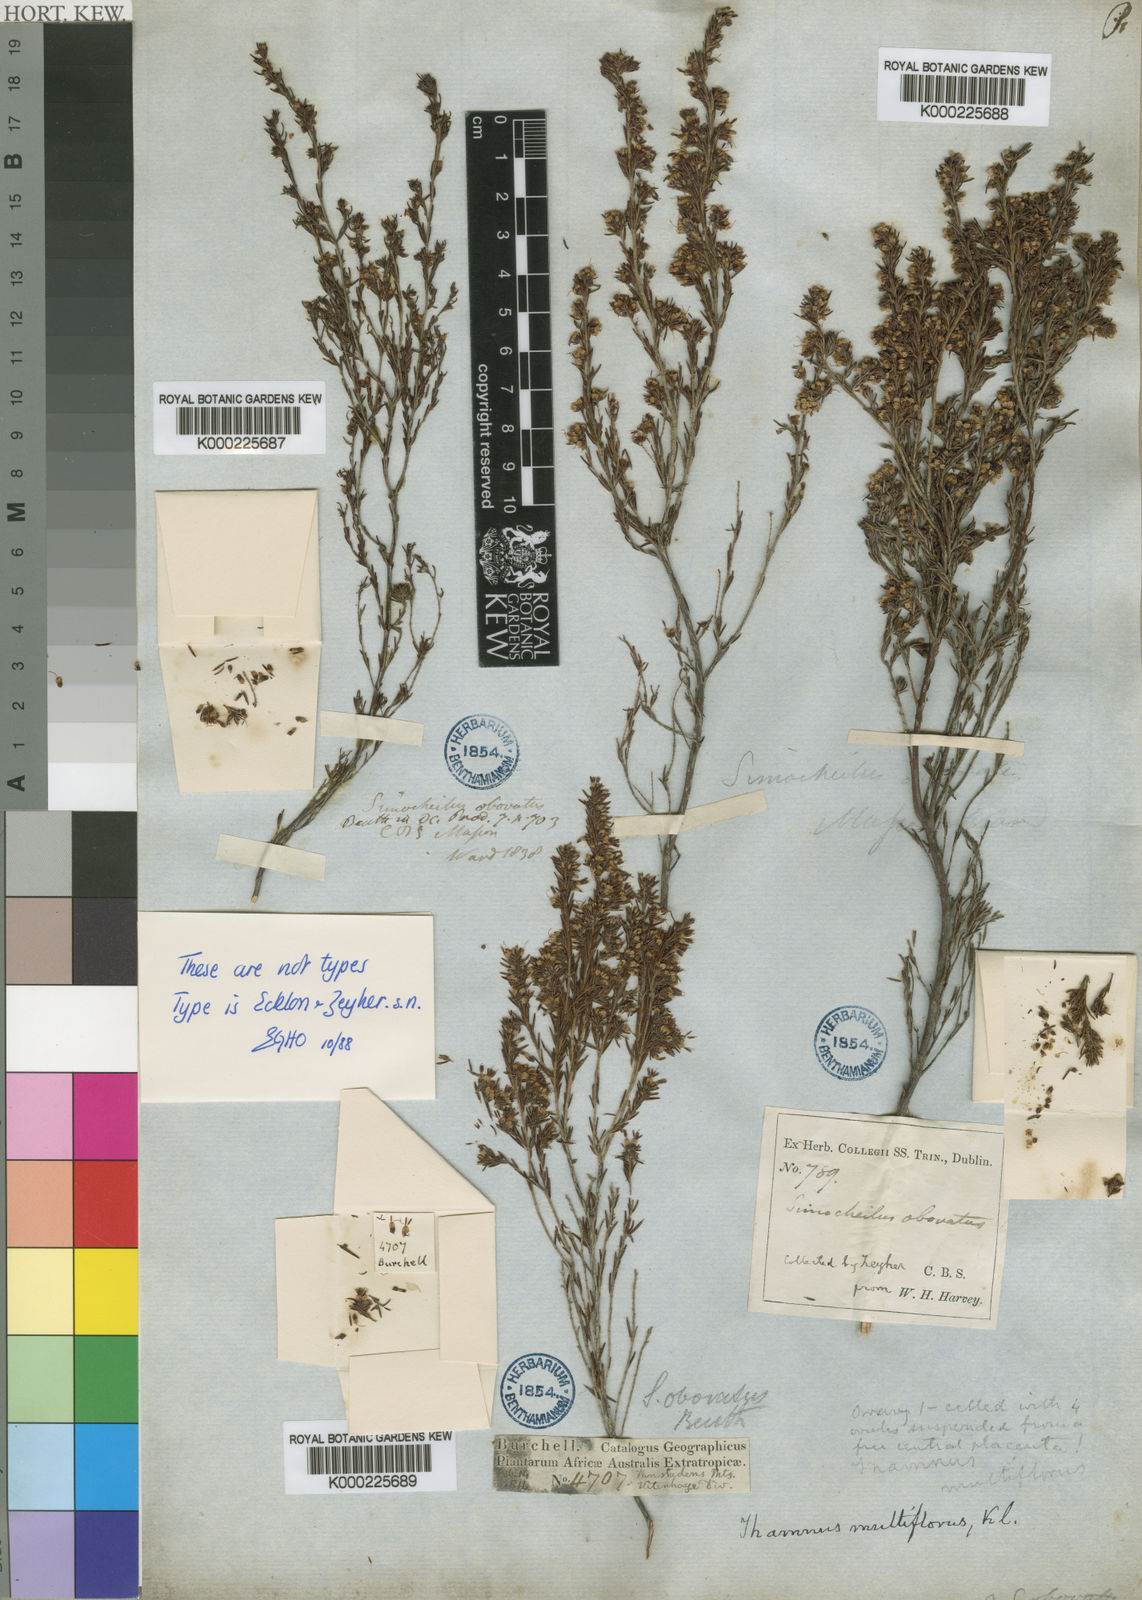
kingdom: Plantae
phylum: Tracheophyta
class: Magnoliopsida
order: Ericales
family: Ericaceae
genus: Erica
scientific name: Erica thamnoides
